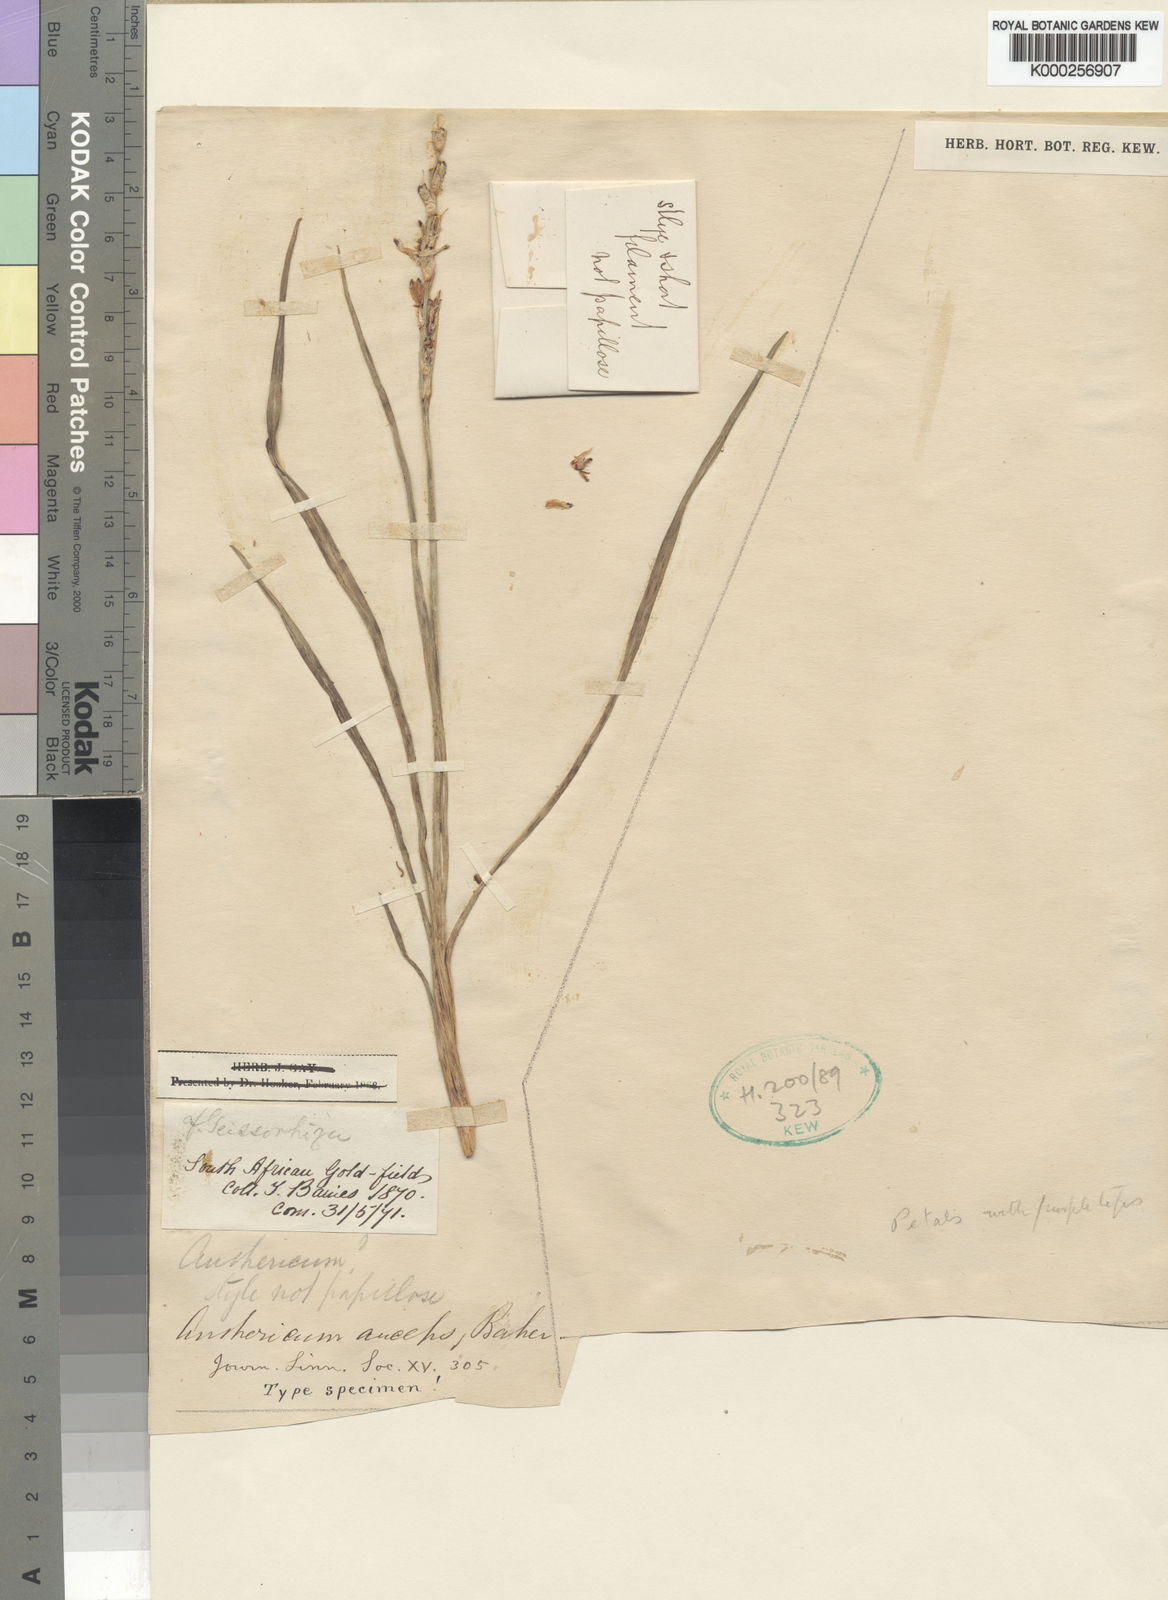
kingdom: Plantae
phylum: Tracheophyta
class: Liliopsida
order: Asparagales
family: Asparagaceae
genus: Chlorophytum
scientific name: Chlorophytum anceps
